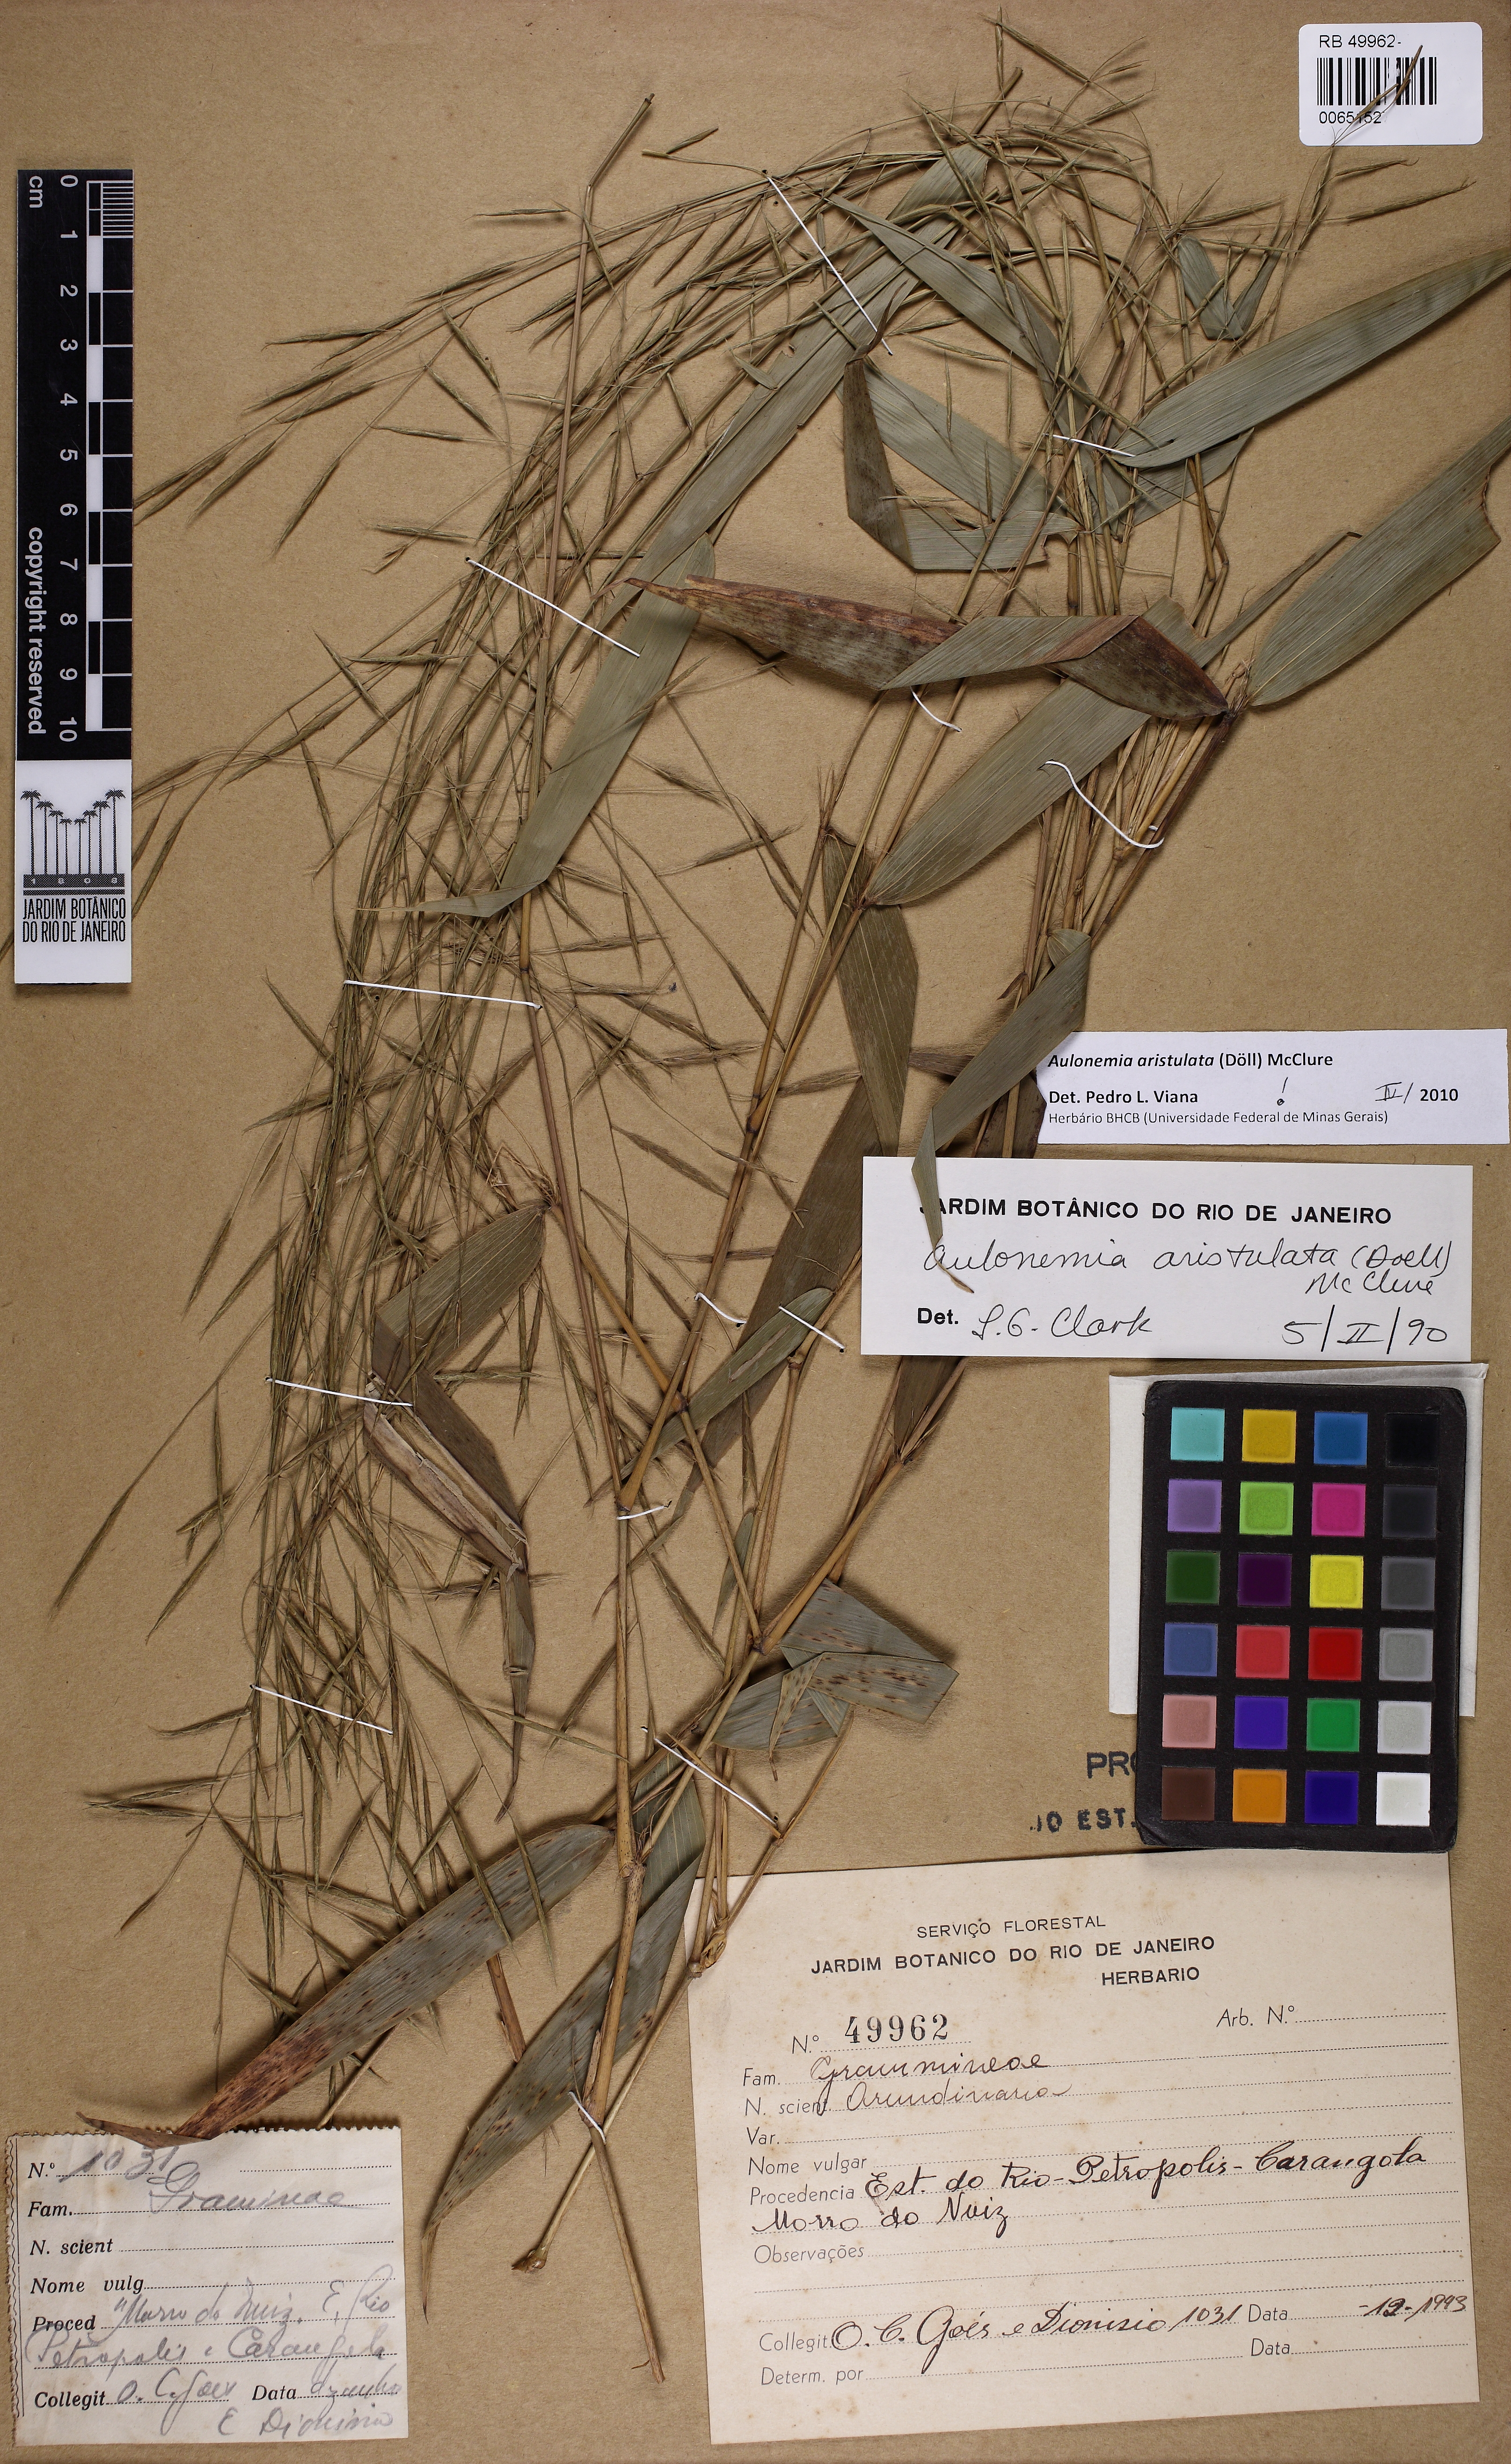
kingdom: Plantae
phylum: Tracheophyta
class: Liliopsida
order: Poales
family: Poaceae
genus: Aulonemia
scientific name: Aulonemia aristulata
